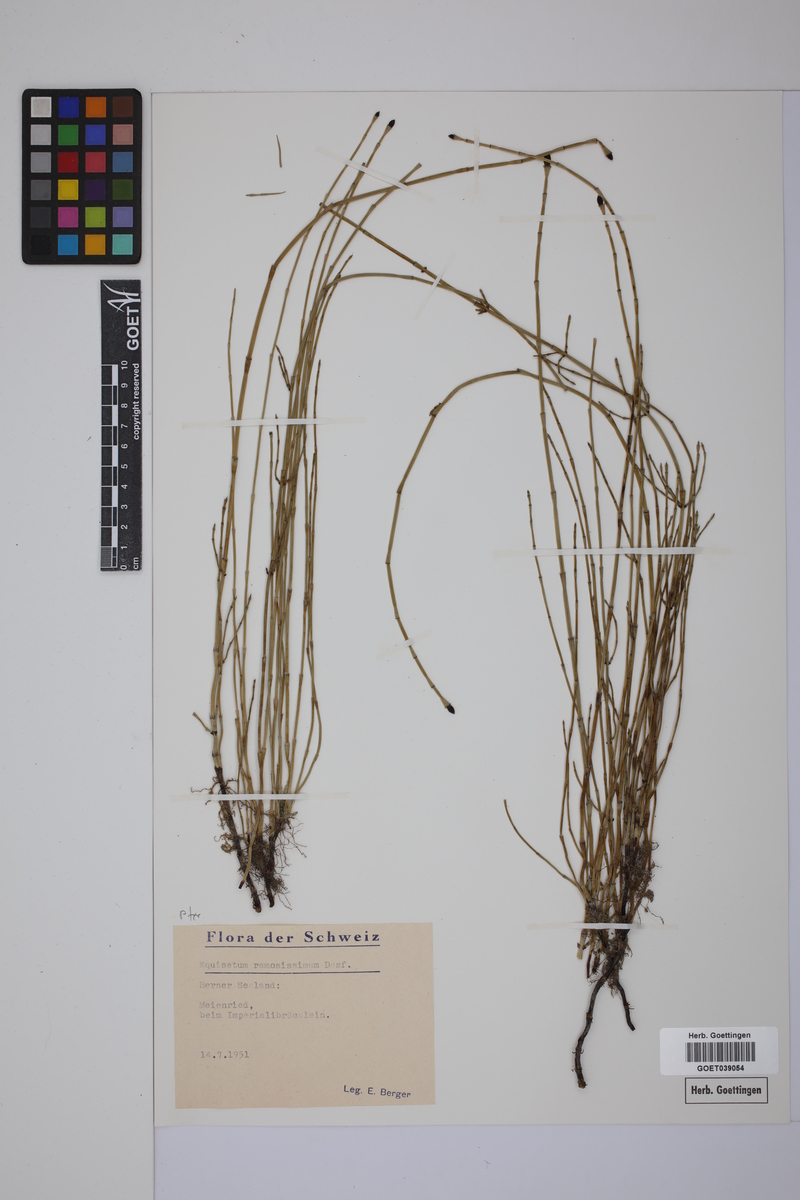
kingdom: Plantae
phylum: Tracheophyta
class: Polypodiopsida
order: Equisetales
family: Equisetaceae
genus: Equisetum
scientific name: Equisetum giganteum
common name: Giant horsetail
